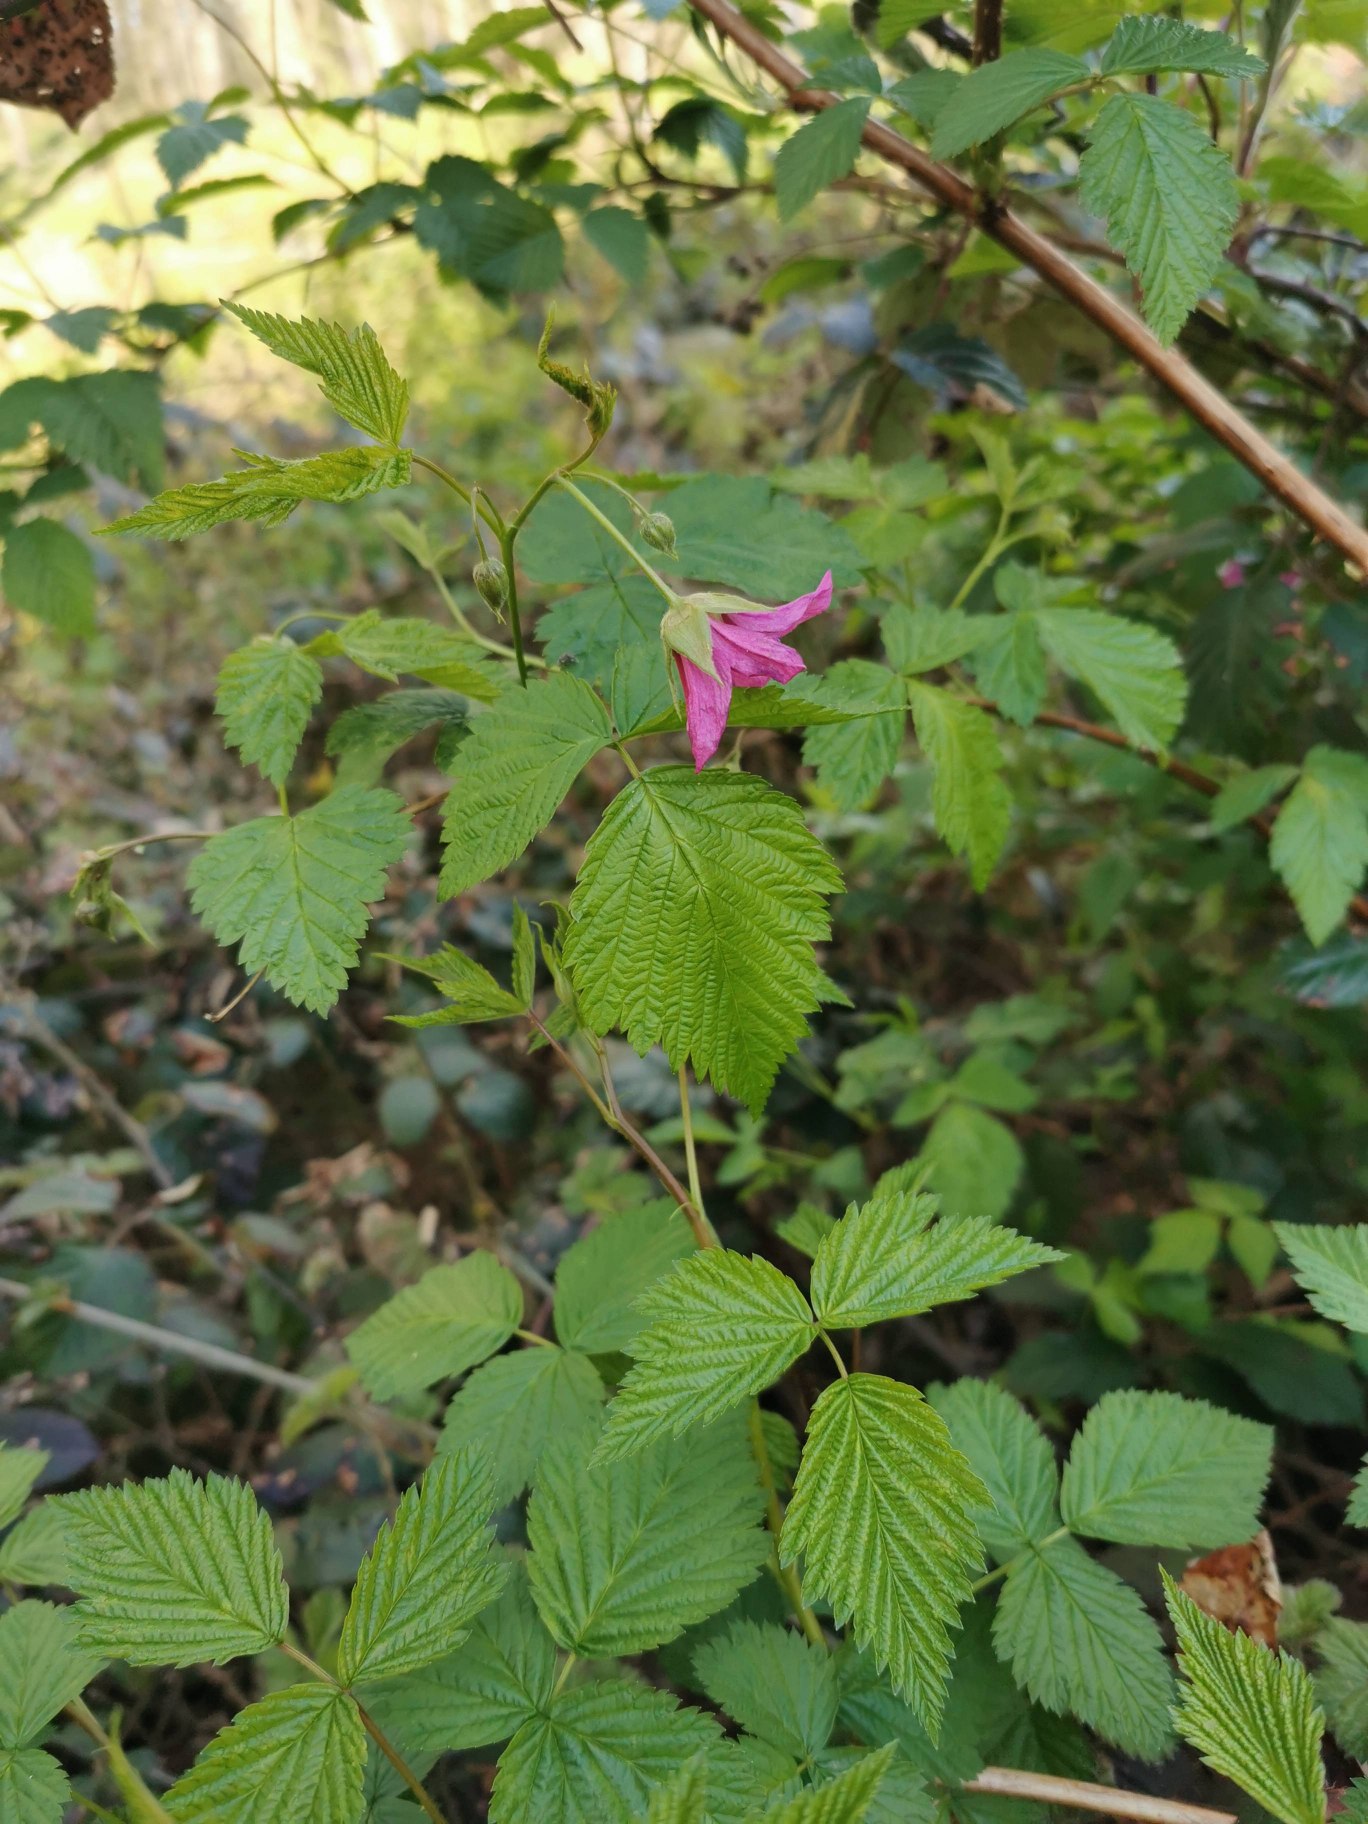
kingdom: Plantae
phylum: Tracheophyta
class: Magnoliopsida
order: Rosales
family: Rosaceae
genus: Rubus
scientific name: Rubus spectabilis
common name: Laksebær
